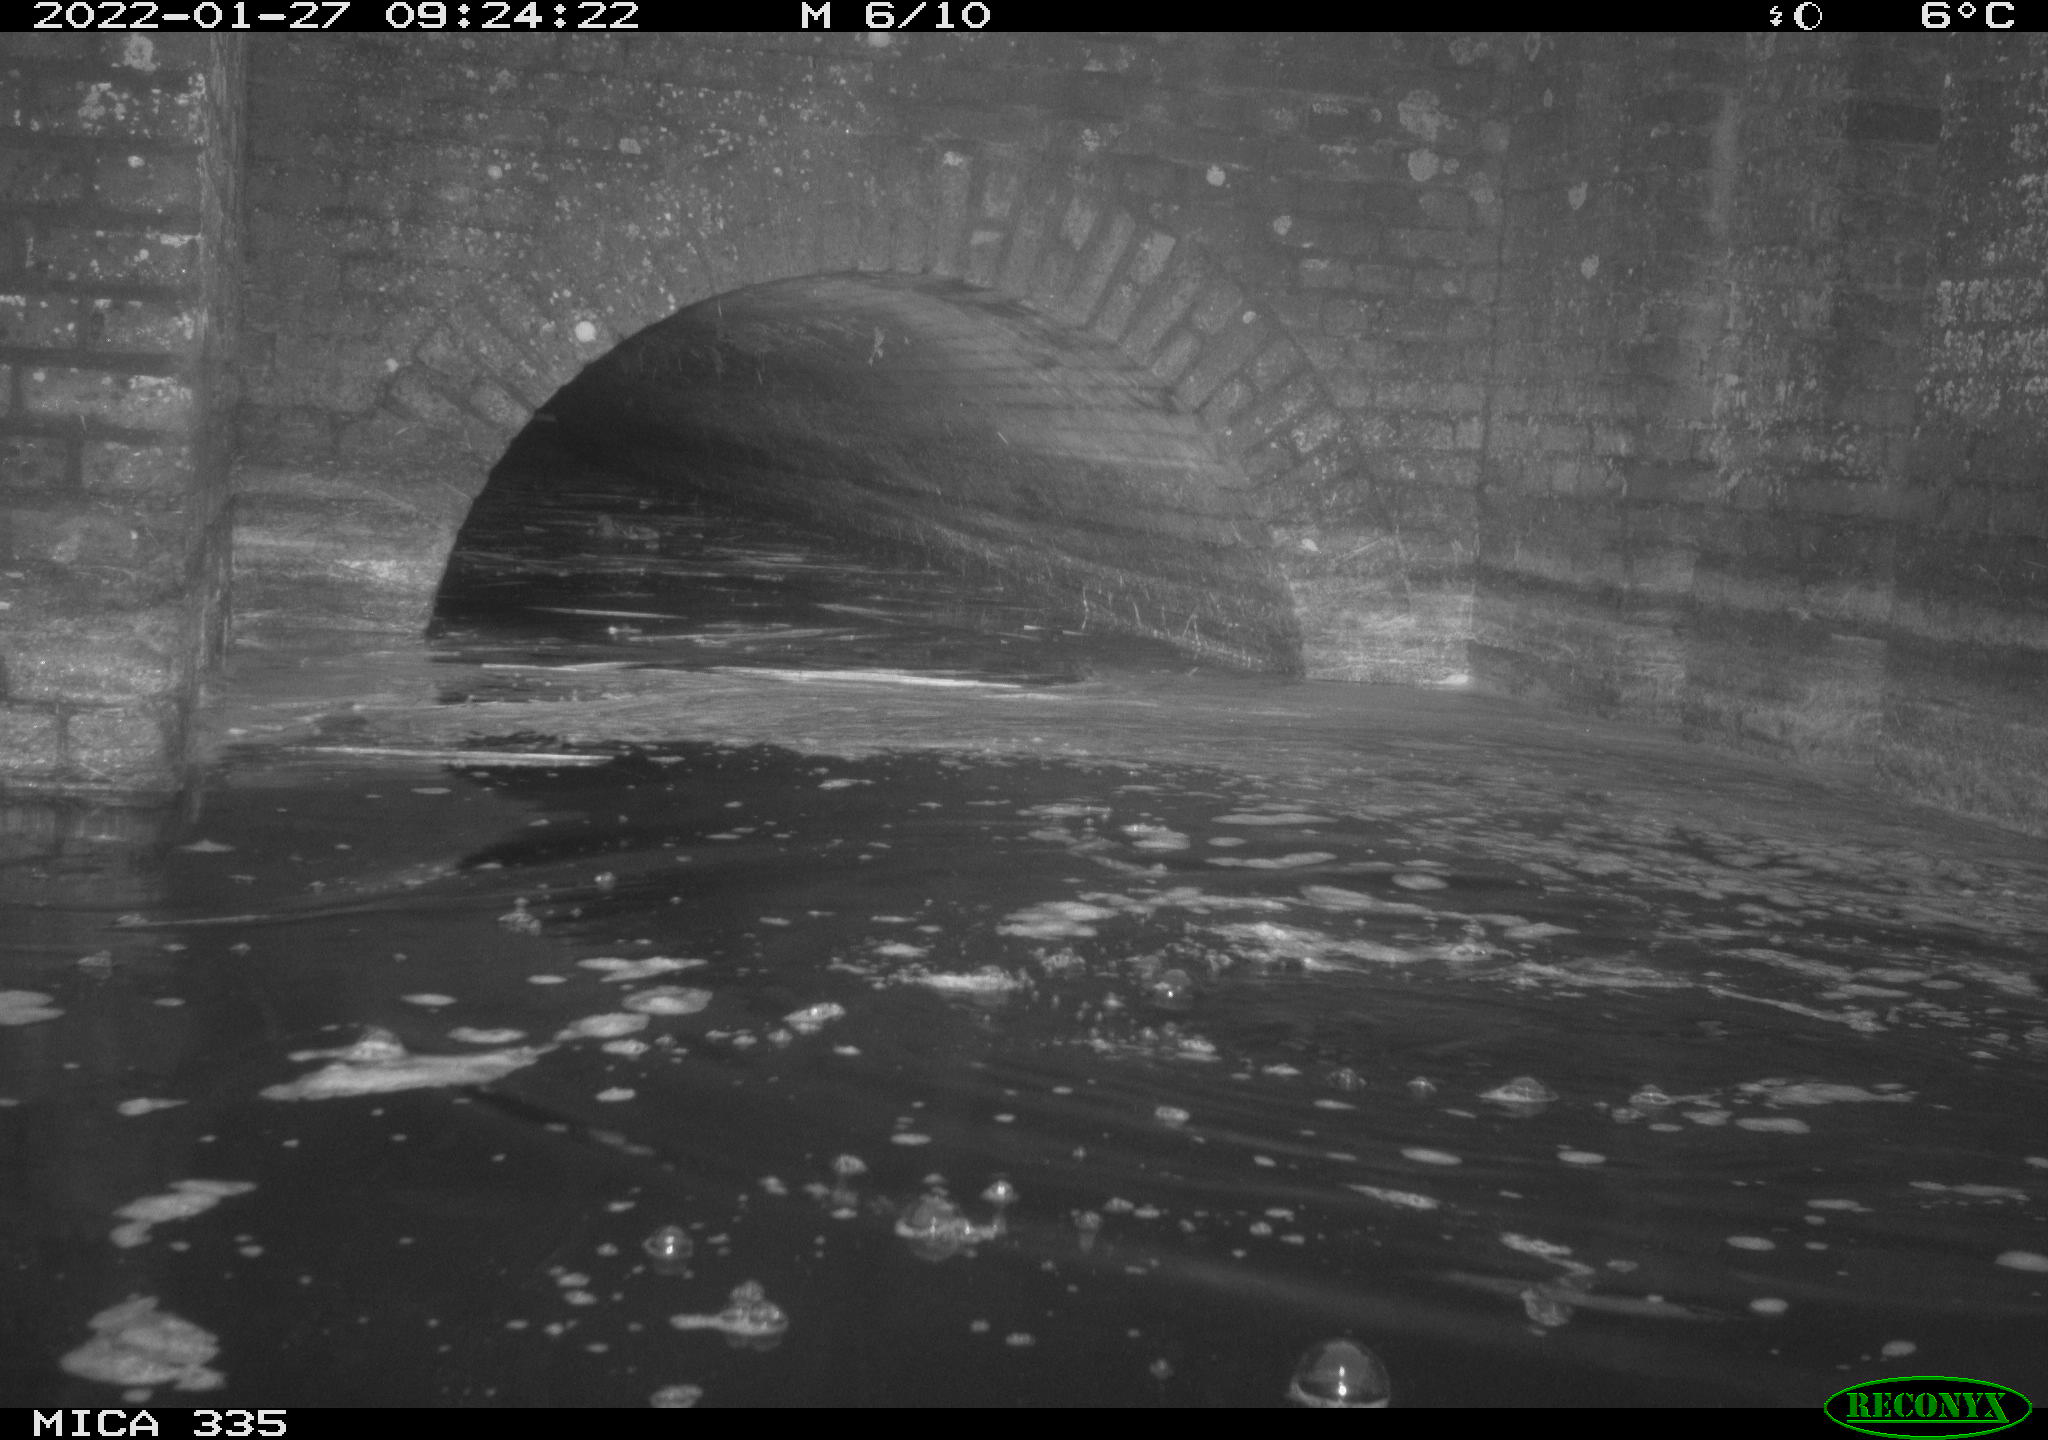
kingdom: Animalia
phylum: Chordata
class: Aves
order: Suliformes
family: Phalacrocoracidae
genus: Phalacrocorax
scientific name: Phalacrocorax carbo
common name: Great cormorant
